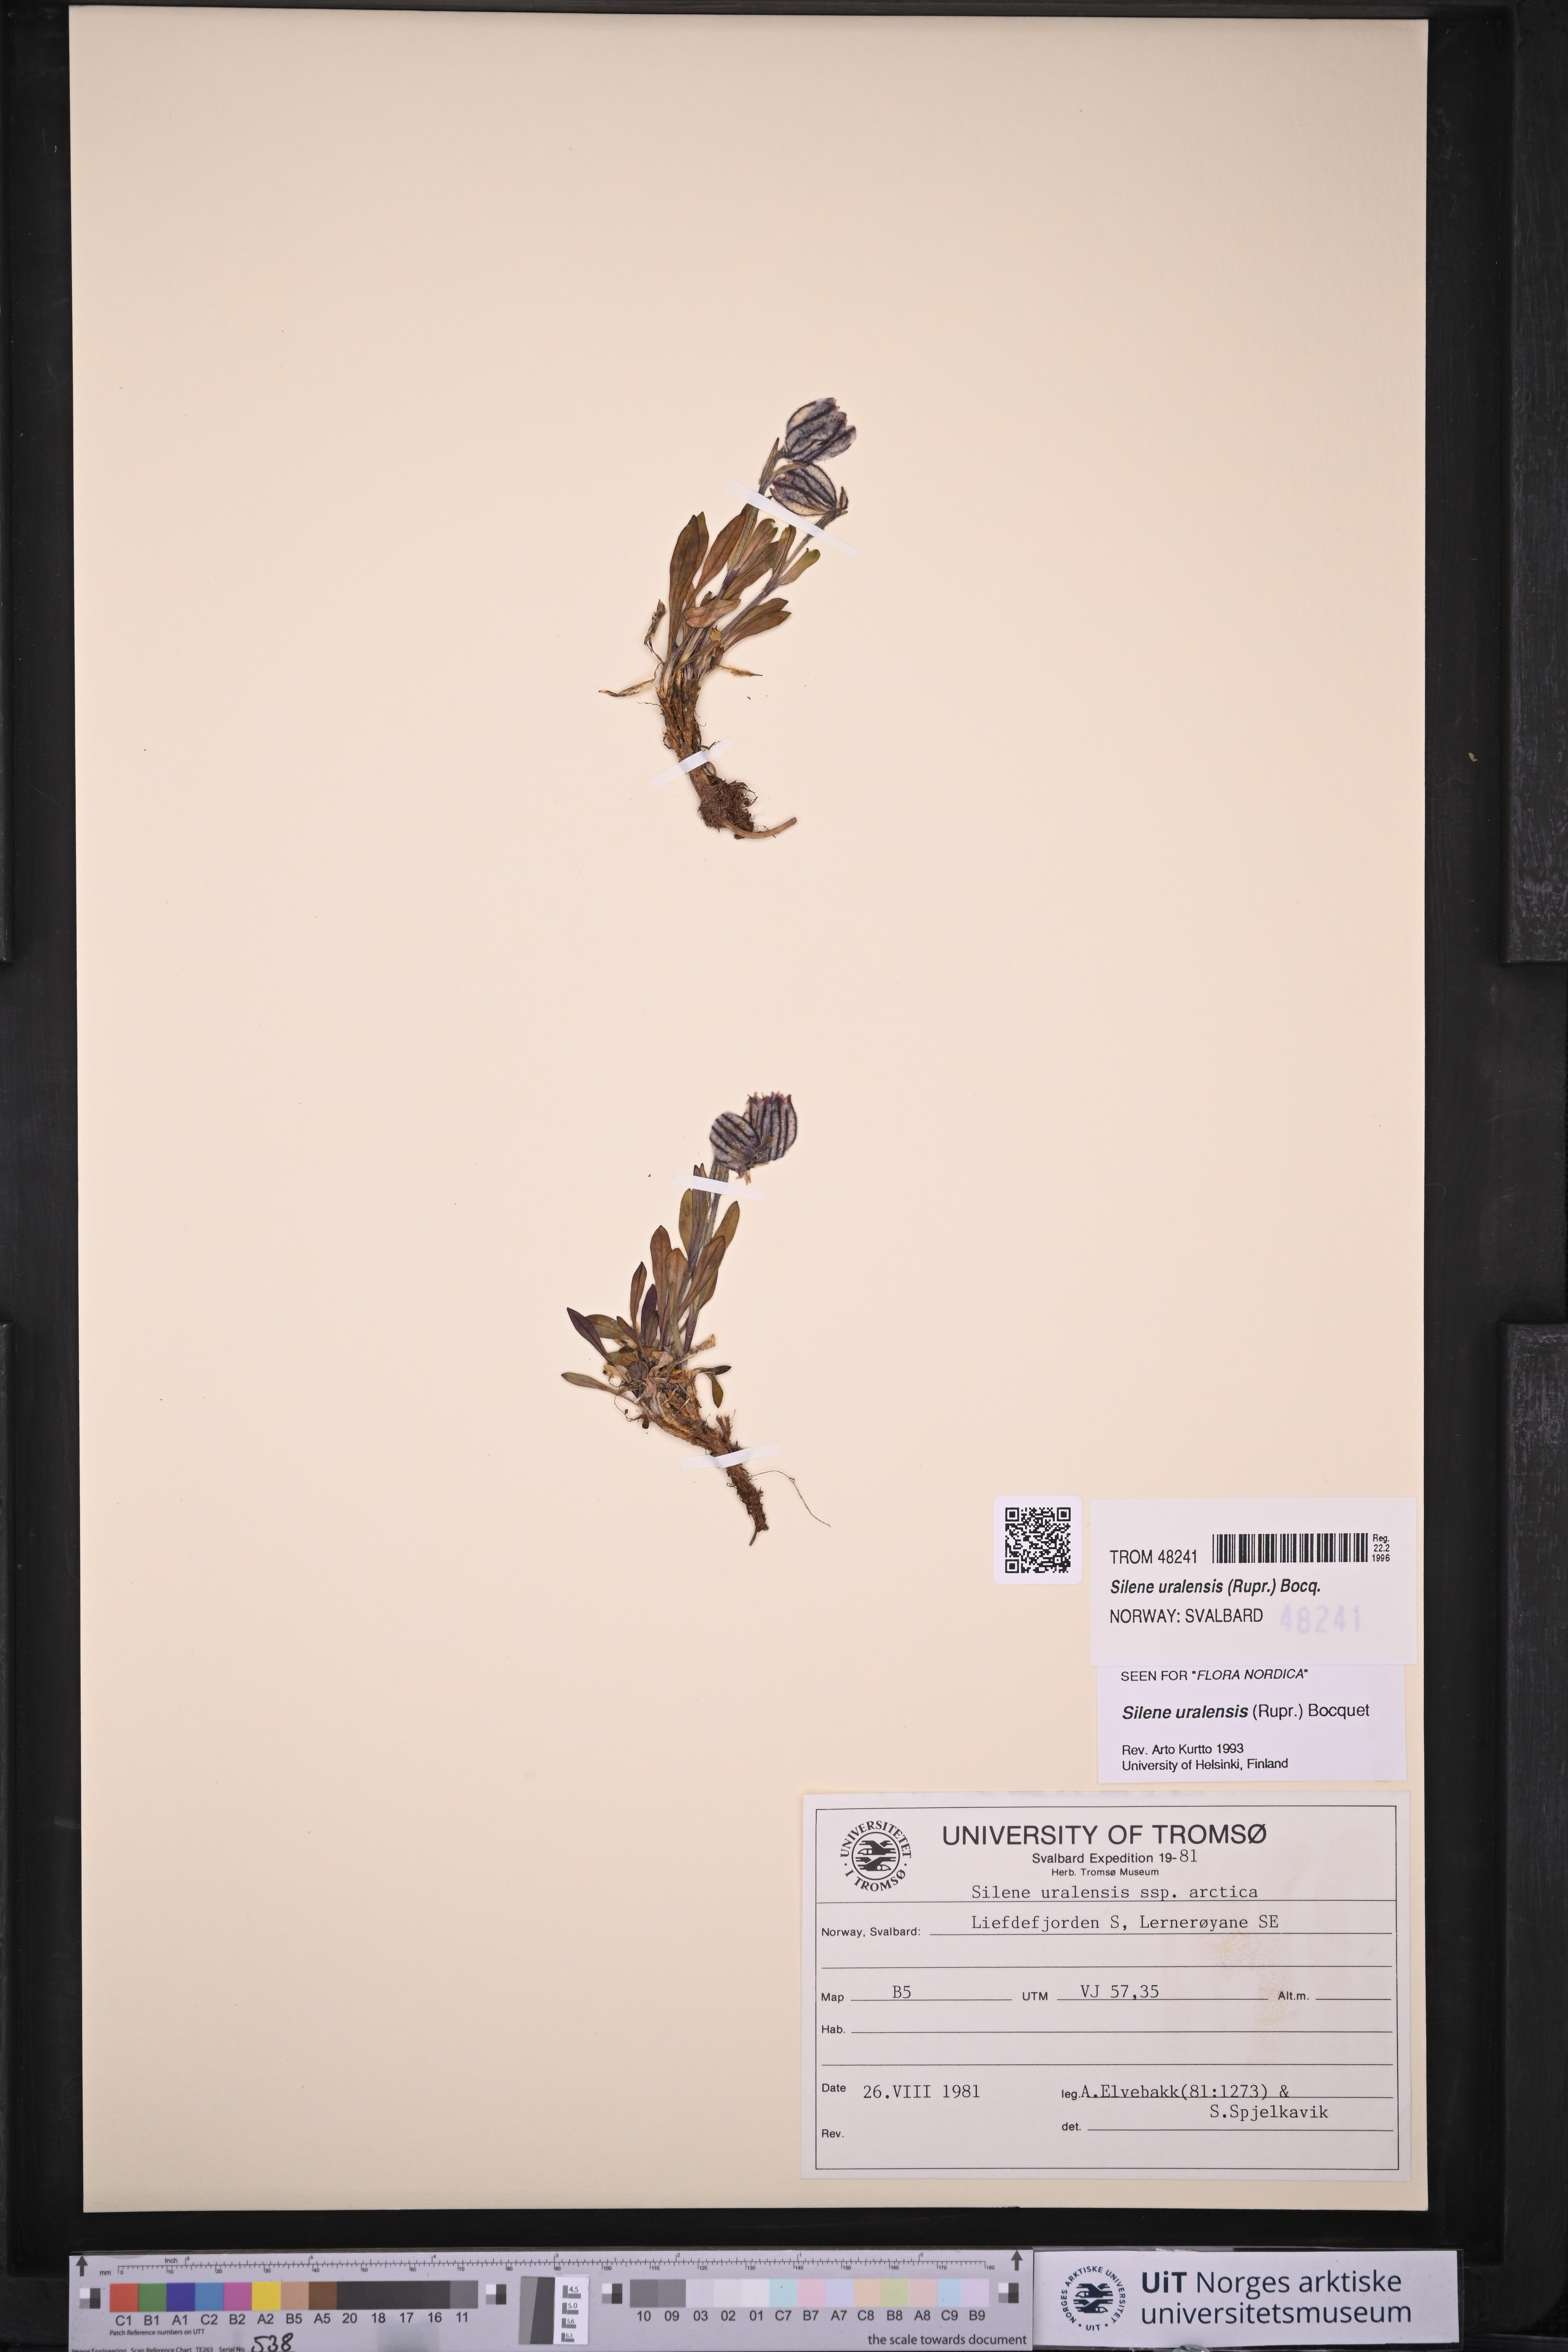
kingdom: Plantae
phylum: Tracheophyta
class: Magnoliopsida
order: Caryophyllales
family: Caryophyllaceae
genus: Silene
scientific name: Silene uralensis
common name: Nodding campion
